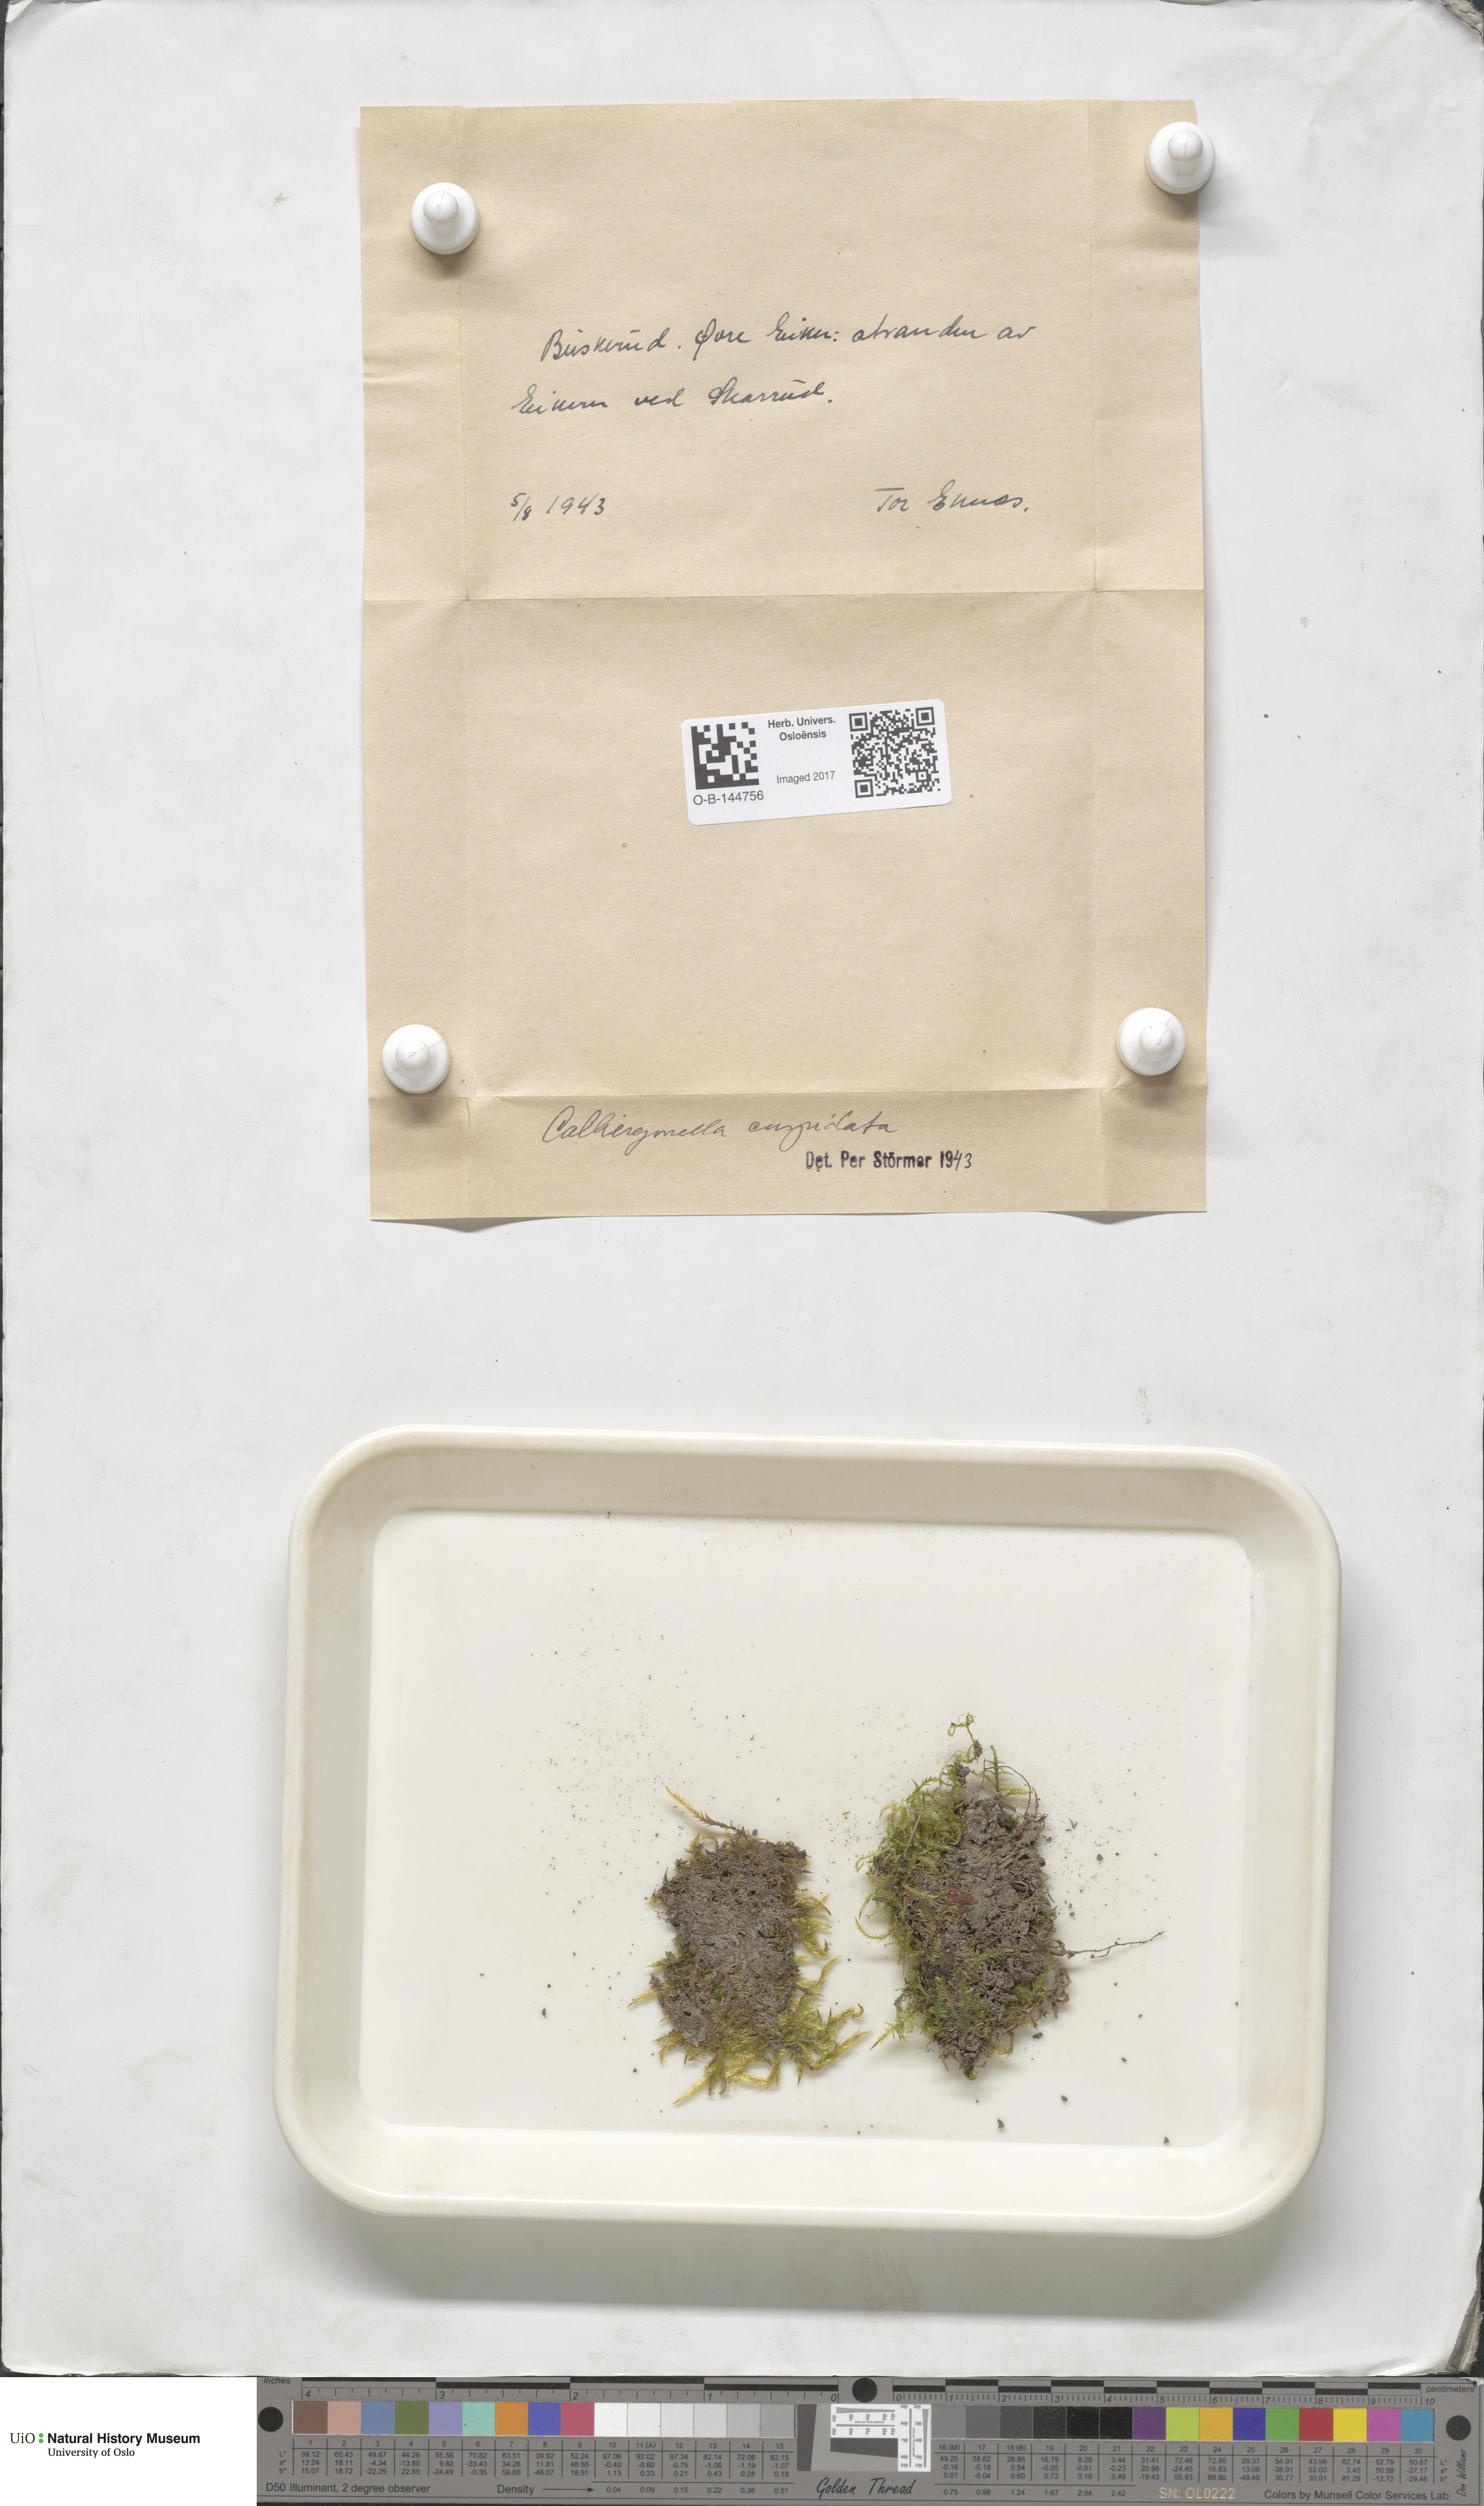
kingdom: Plantae
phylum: Bryophyta
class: Bryopsida
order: Hypnales
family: Pylaisiaceae
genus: Calliergonella
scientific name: Calliergonella cuspidata
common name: Common large wetland moss
